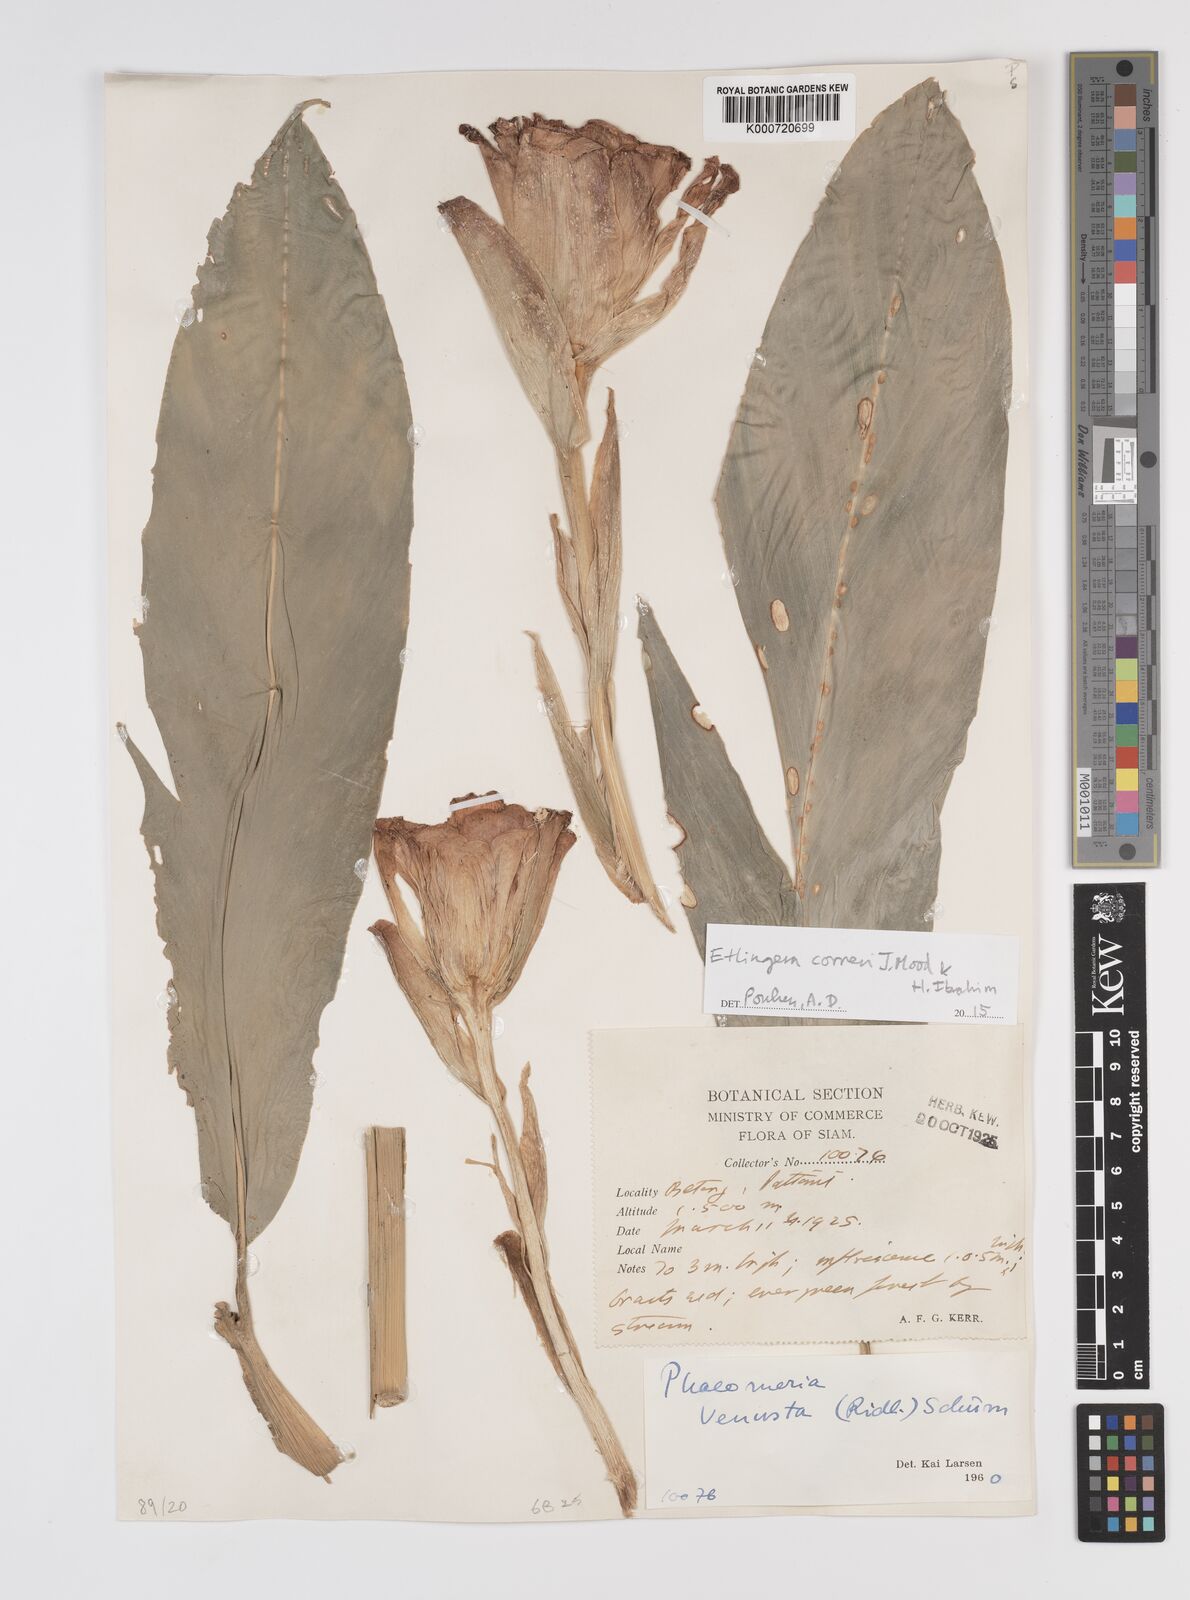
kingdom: Plantae
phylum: Tracheophyta
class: Liliopsida
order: Zingiberales
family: Zingiberaceae
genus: Etlingera
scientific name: Etlingera corneri
